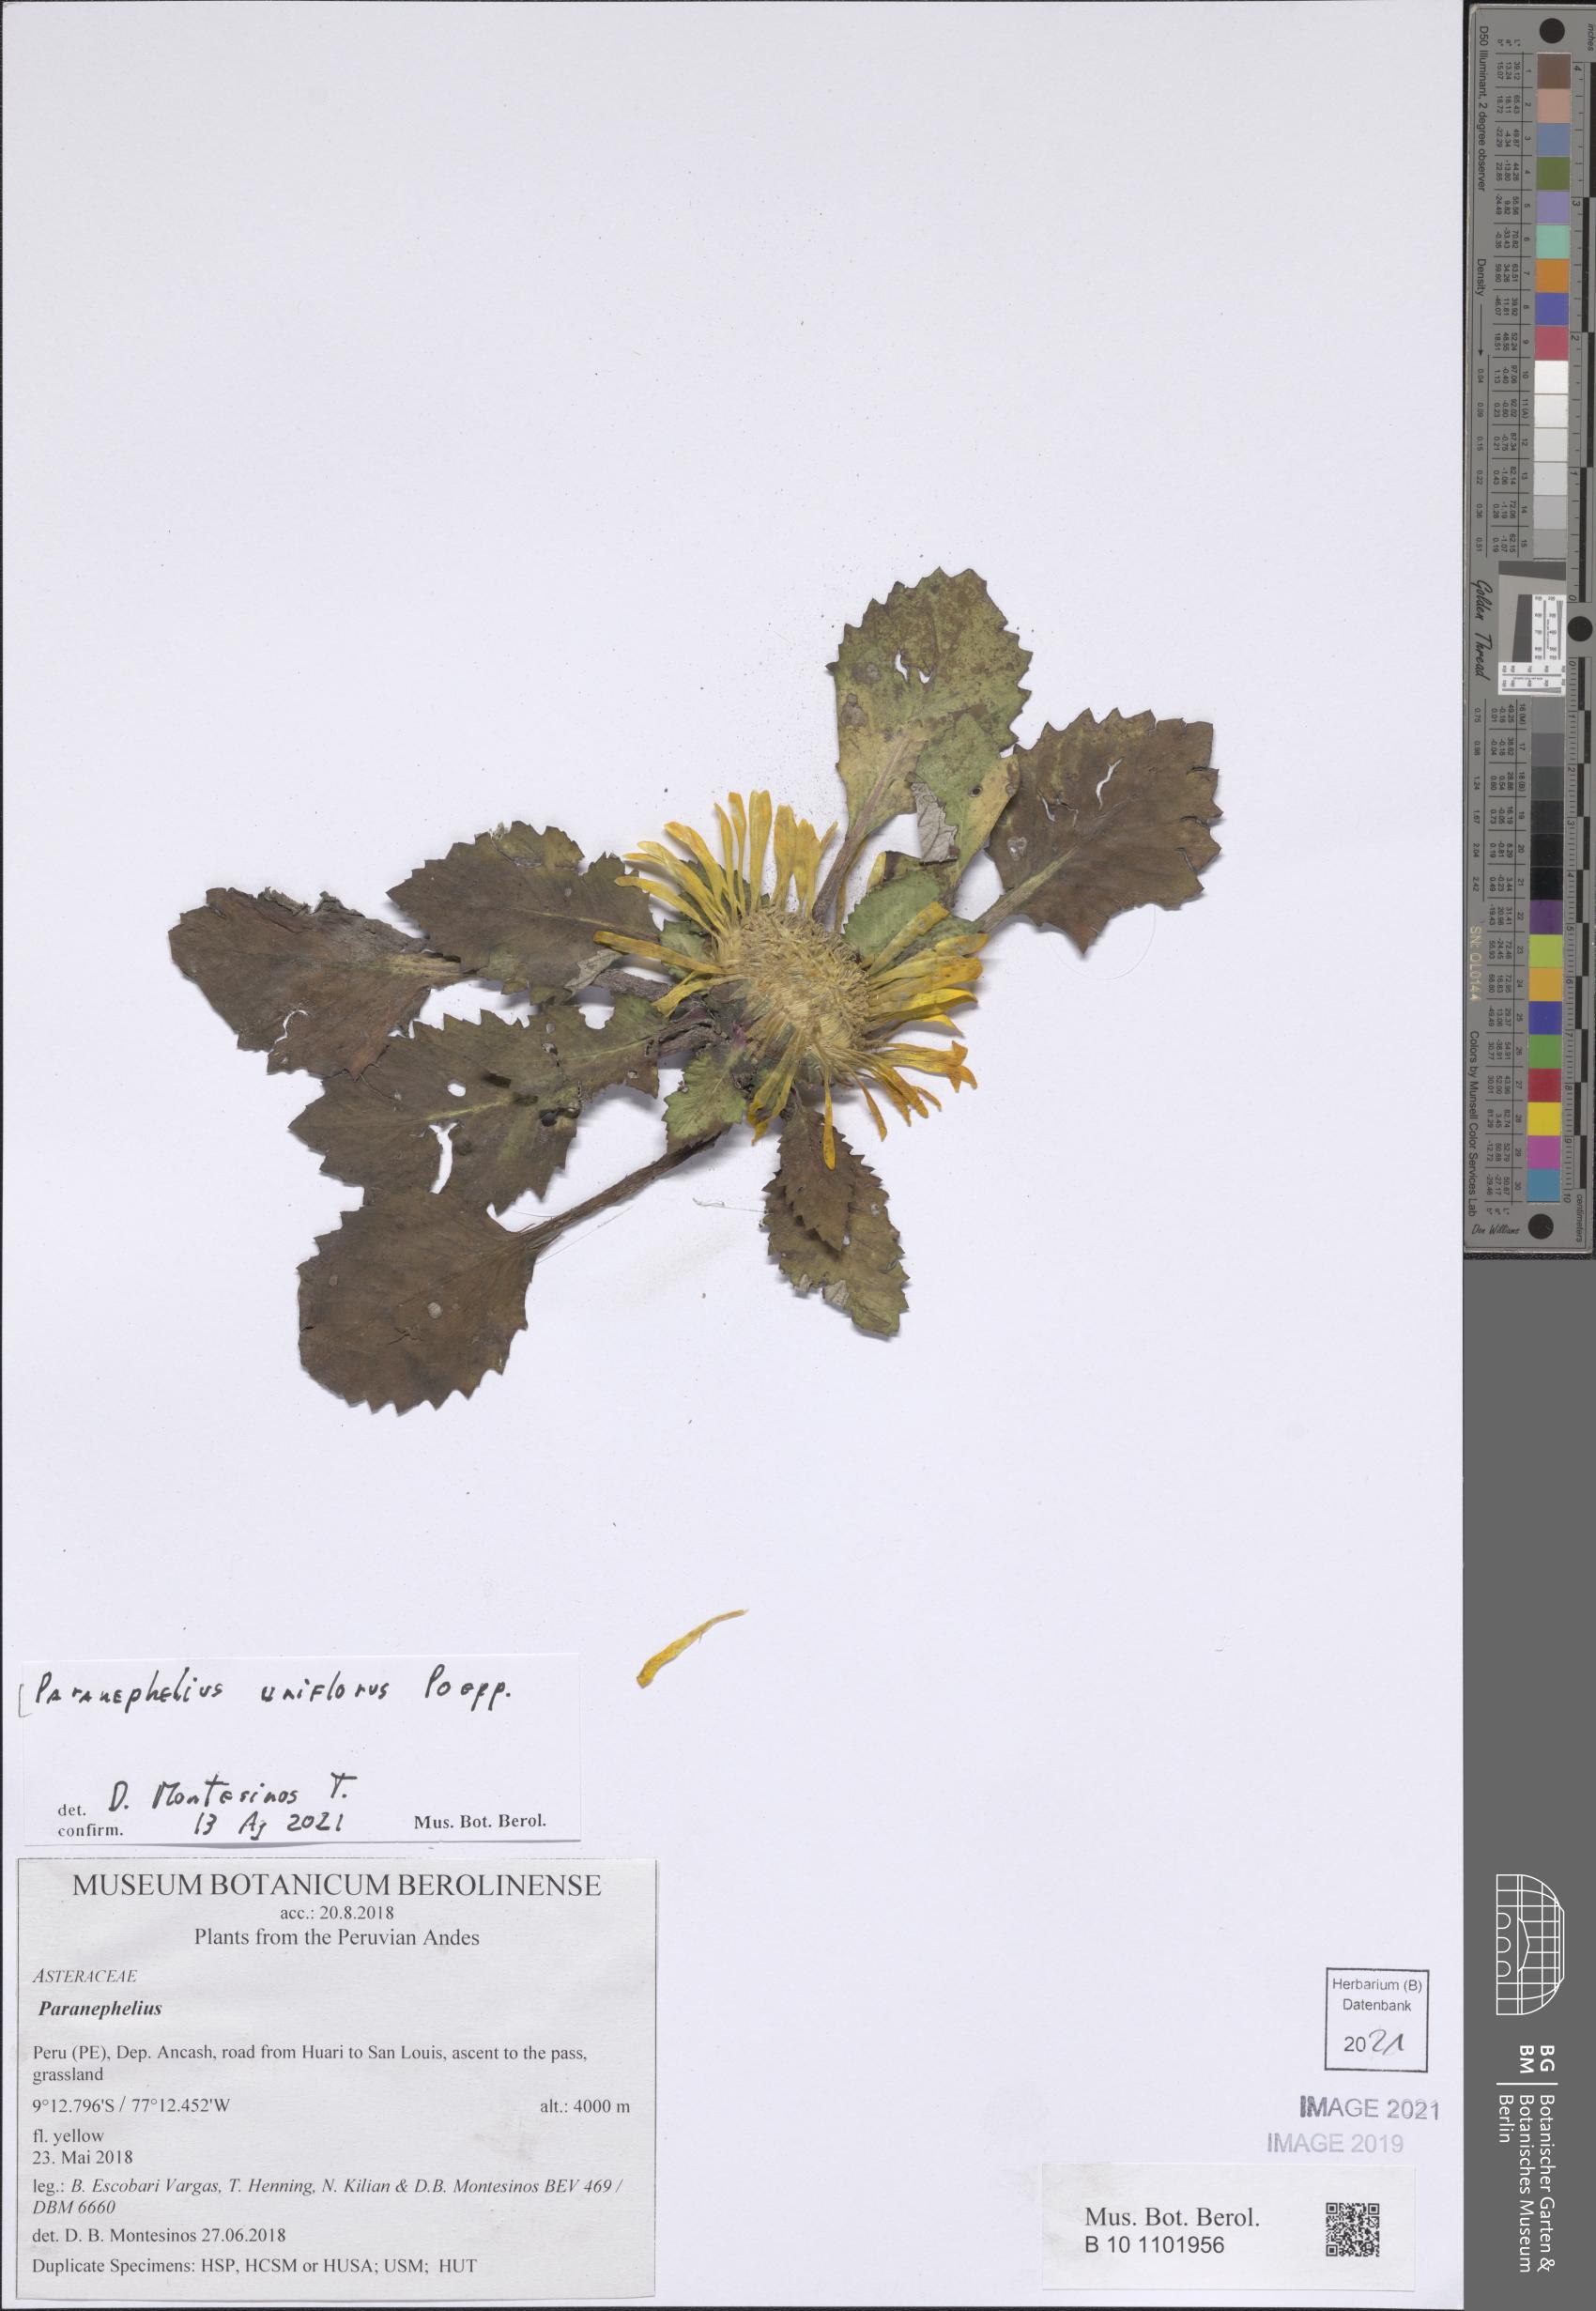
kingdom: Plantae
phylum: Tracheophyta
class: Magnoliopsida
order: Asterales
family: Asteraceae
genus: Paranephelius
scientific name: Paranephelius uniflorus
